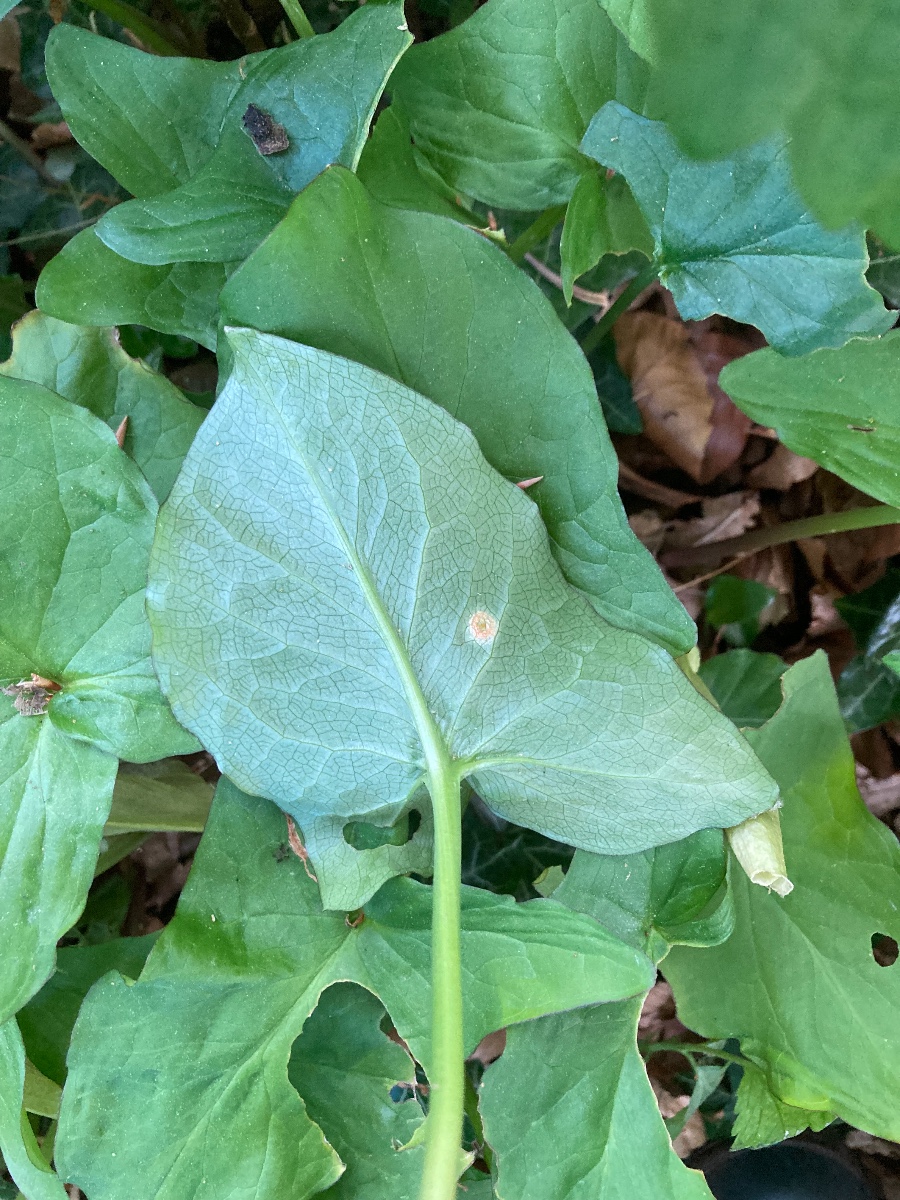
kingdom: Fungi
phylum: Basidiomycota
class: Pucciniomycetes
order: Pucciniales
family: Pucciniaceae
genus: Puccinia
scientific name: Puccinia sessilis
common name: Arum rust
